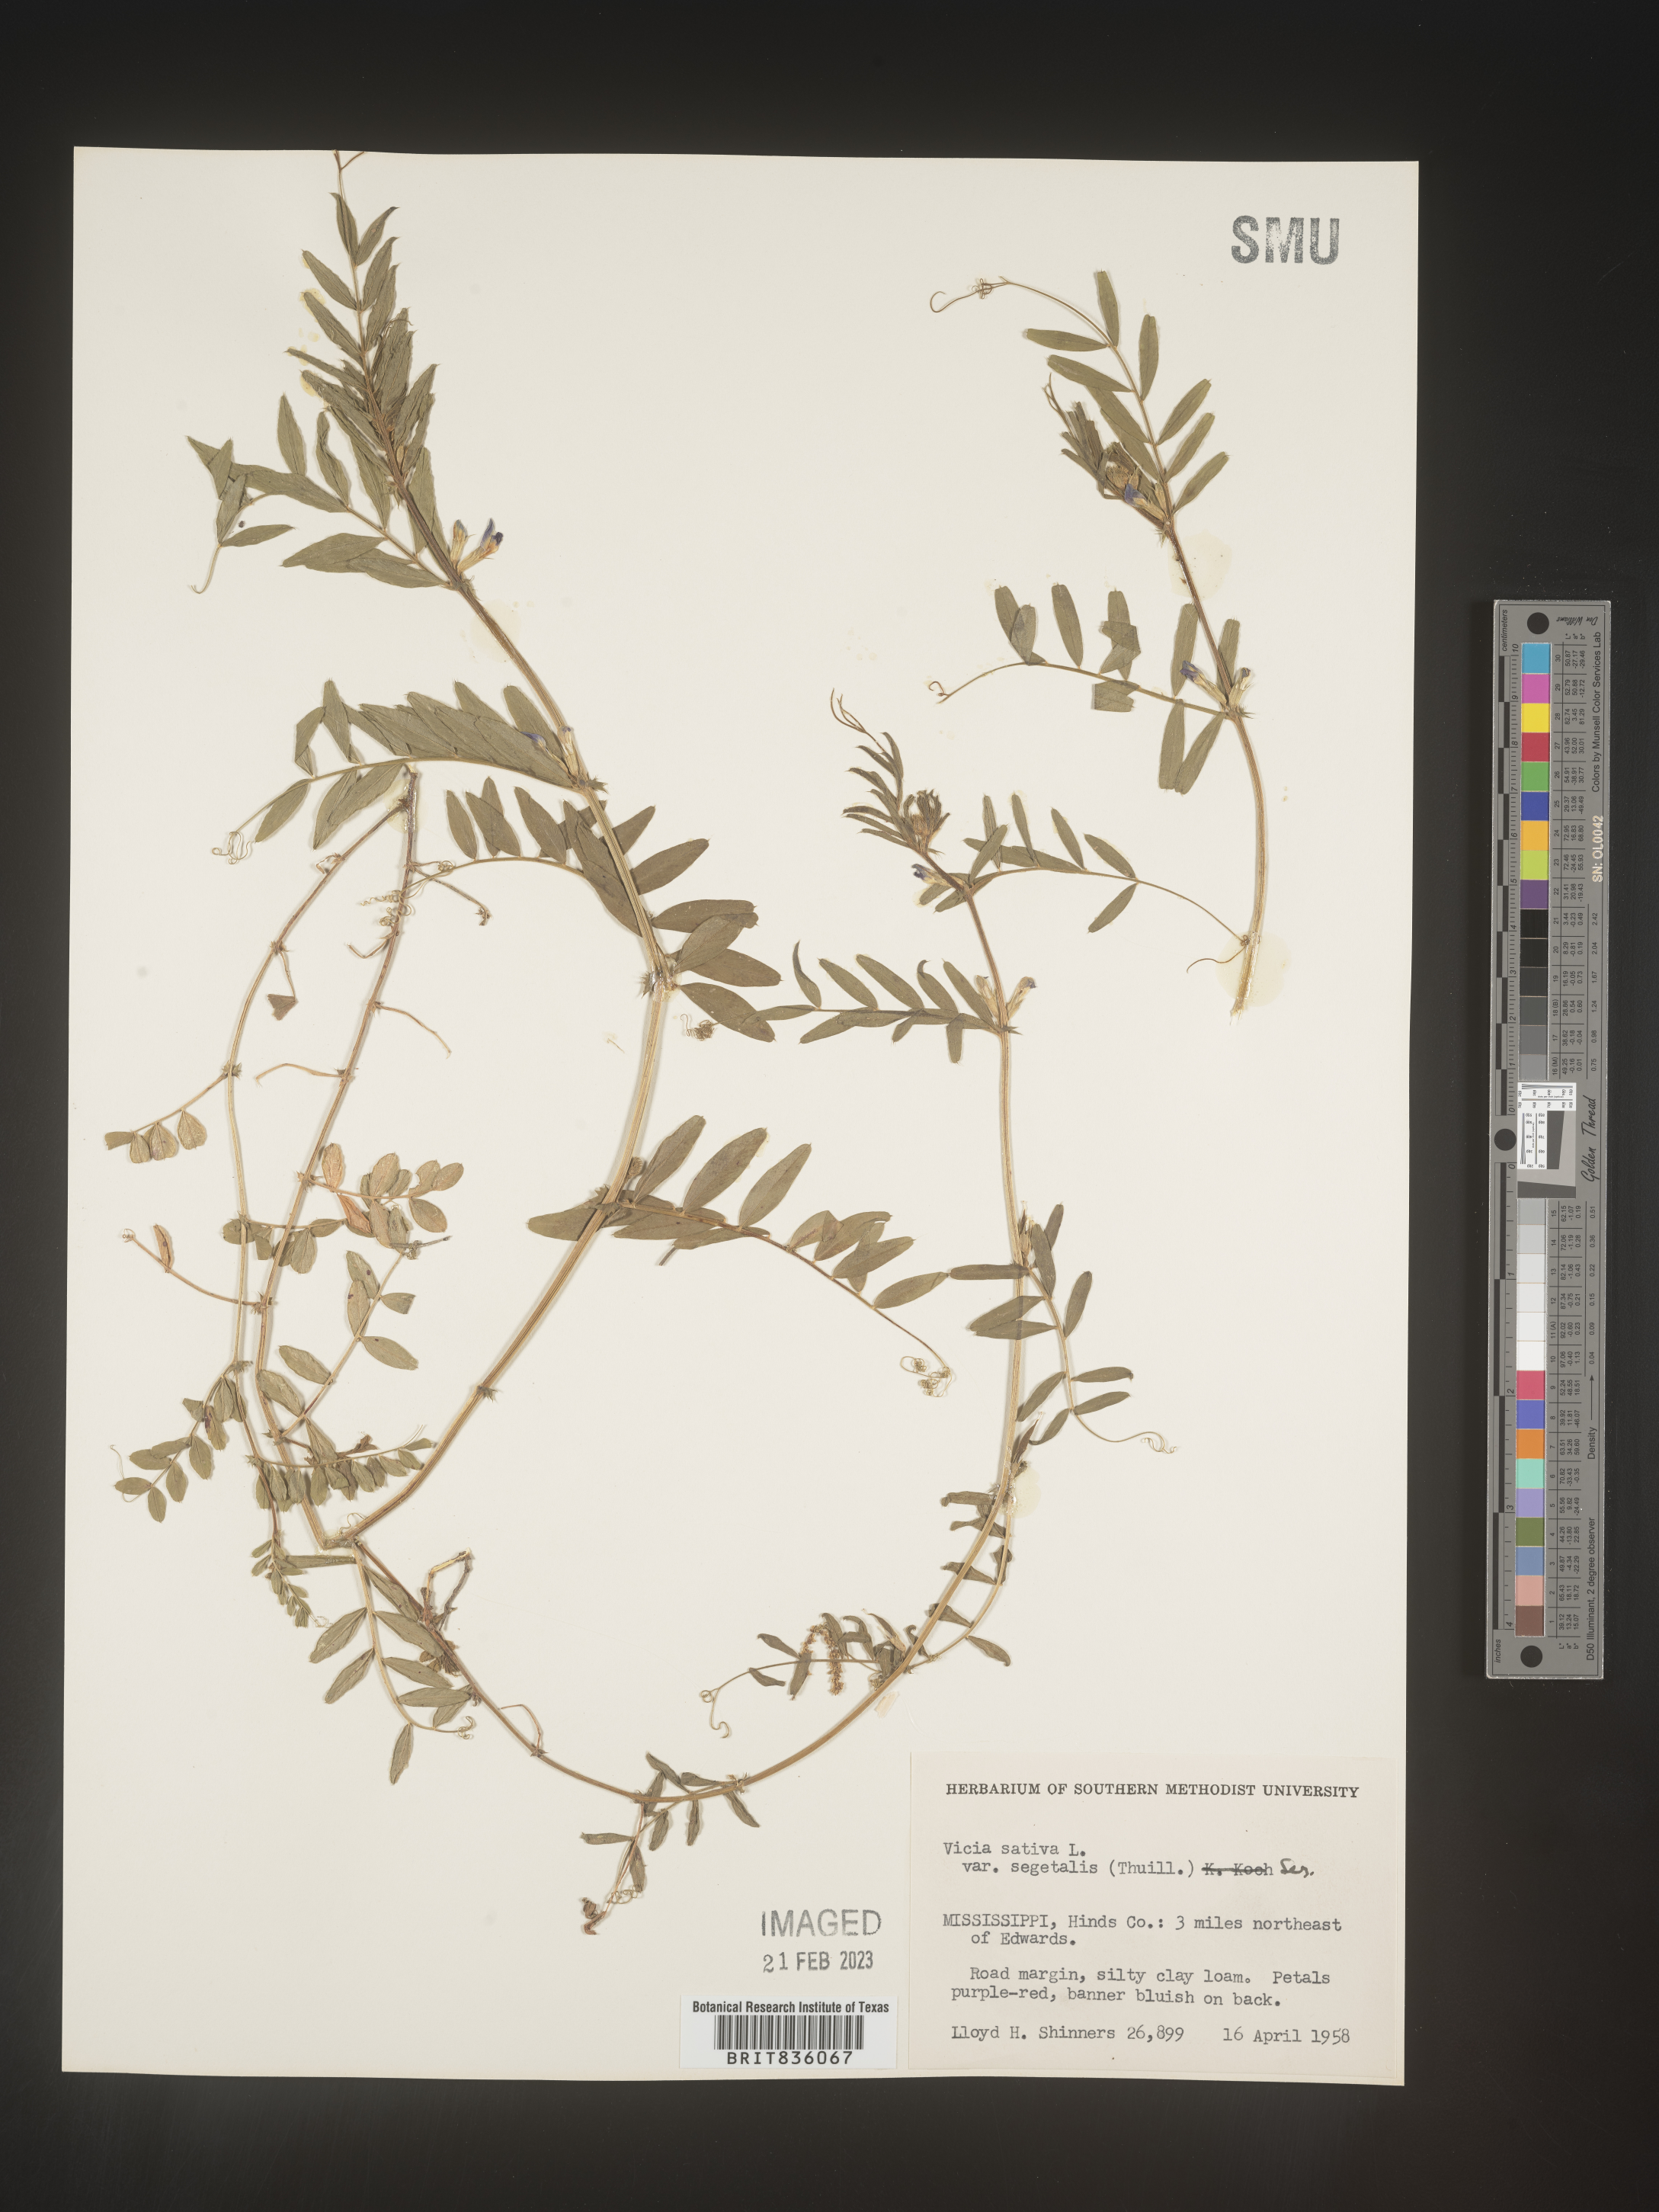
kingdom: Plantae
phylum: Tracheophyta
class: Magnoliopsida
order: Fabales
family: Fabaceae
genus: Vicia
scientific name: Vicia sativa
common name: Garden vetch
